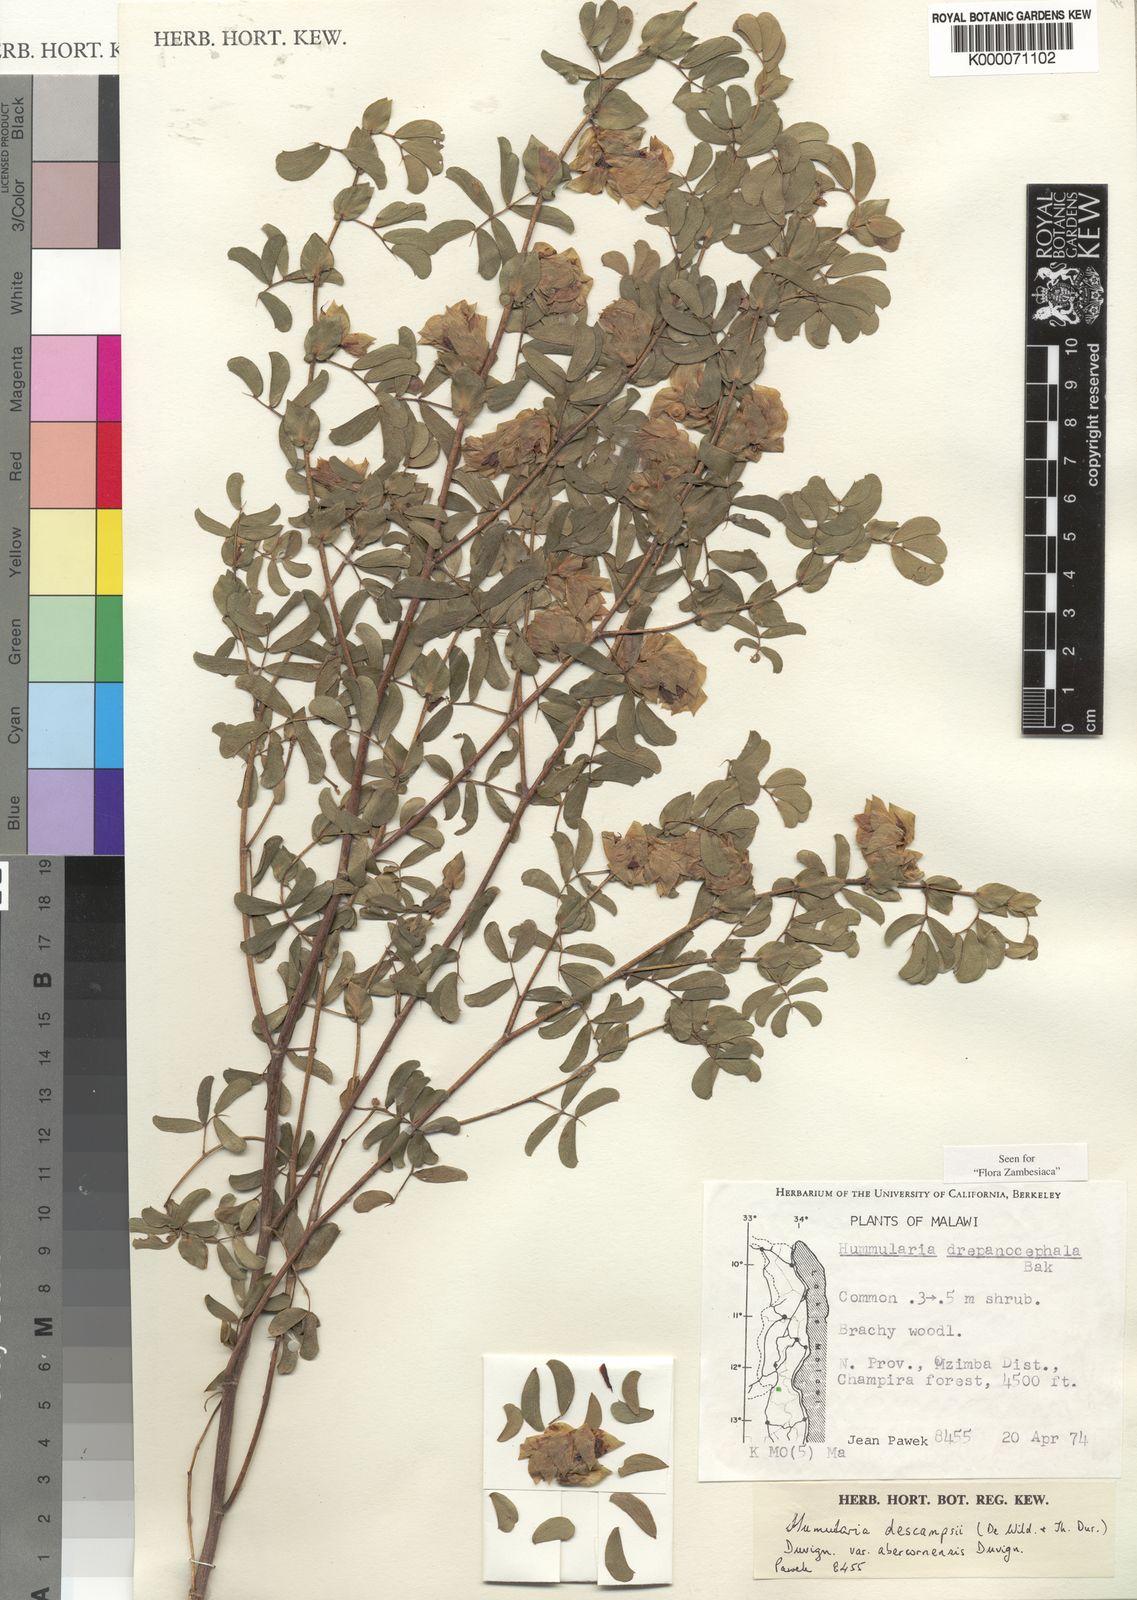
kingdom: Plantae
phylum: Tracheophyta
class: Magnoliopsida
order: Fabales
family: Fabaceae
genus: Humularia
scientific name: Humularia
